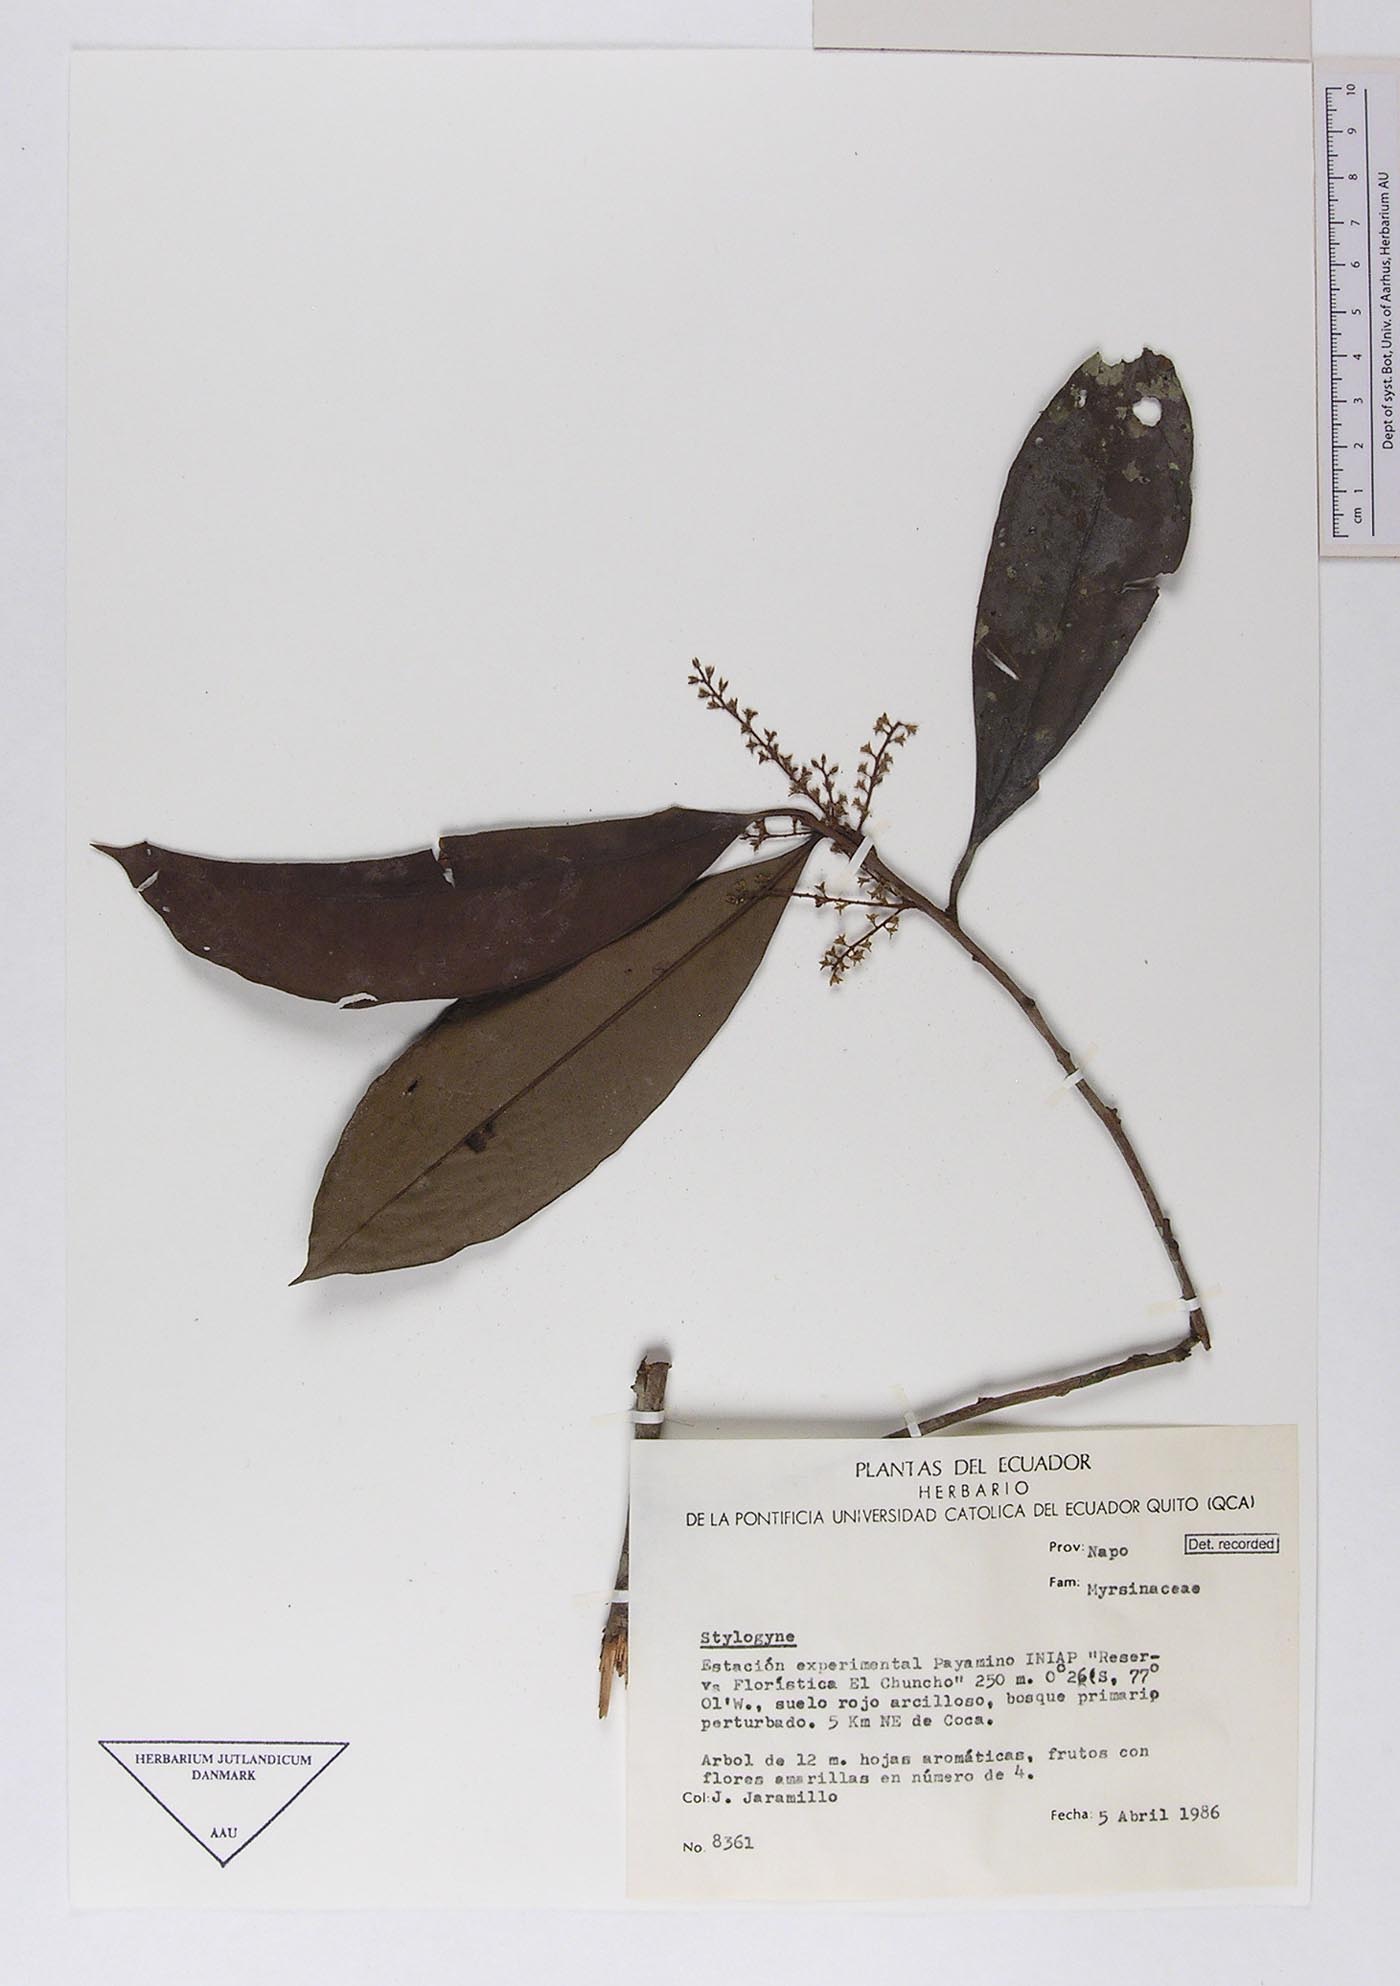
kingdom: Plantae
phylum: Tracheophyta
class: Magnoliopsida
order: Ericales
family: Primulaceae
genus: Cybianthus
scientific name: Cybianthus guyanensis
